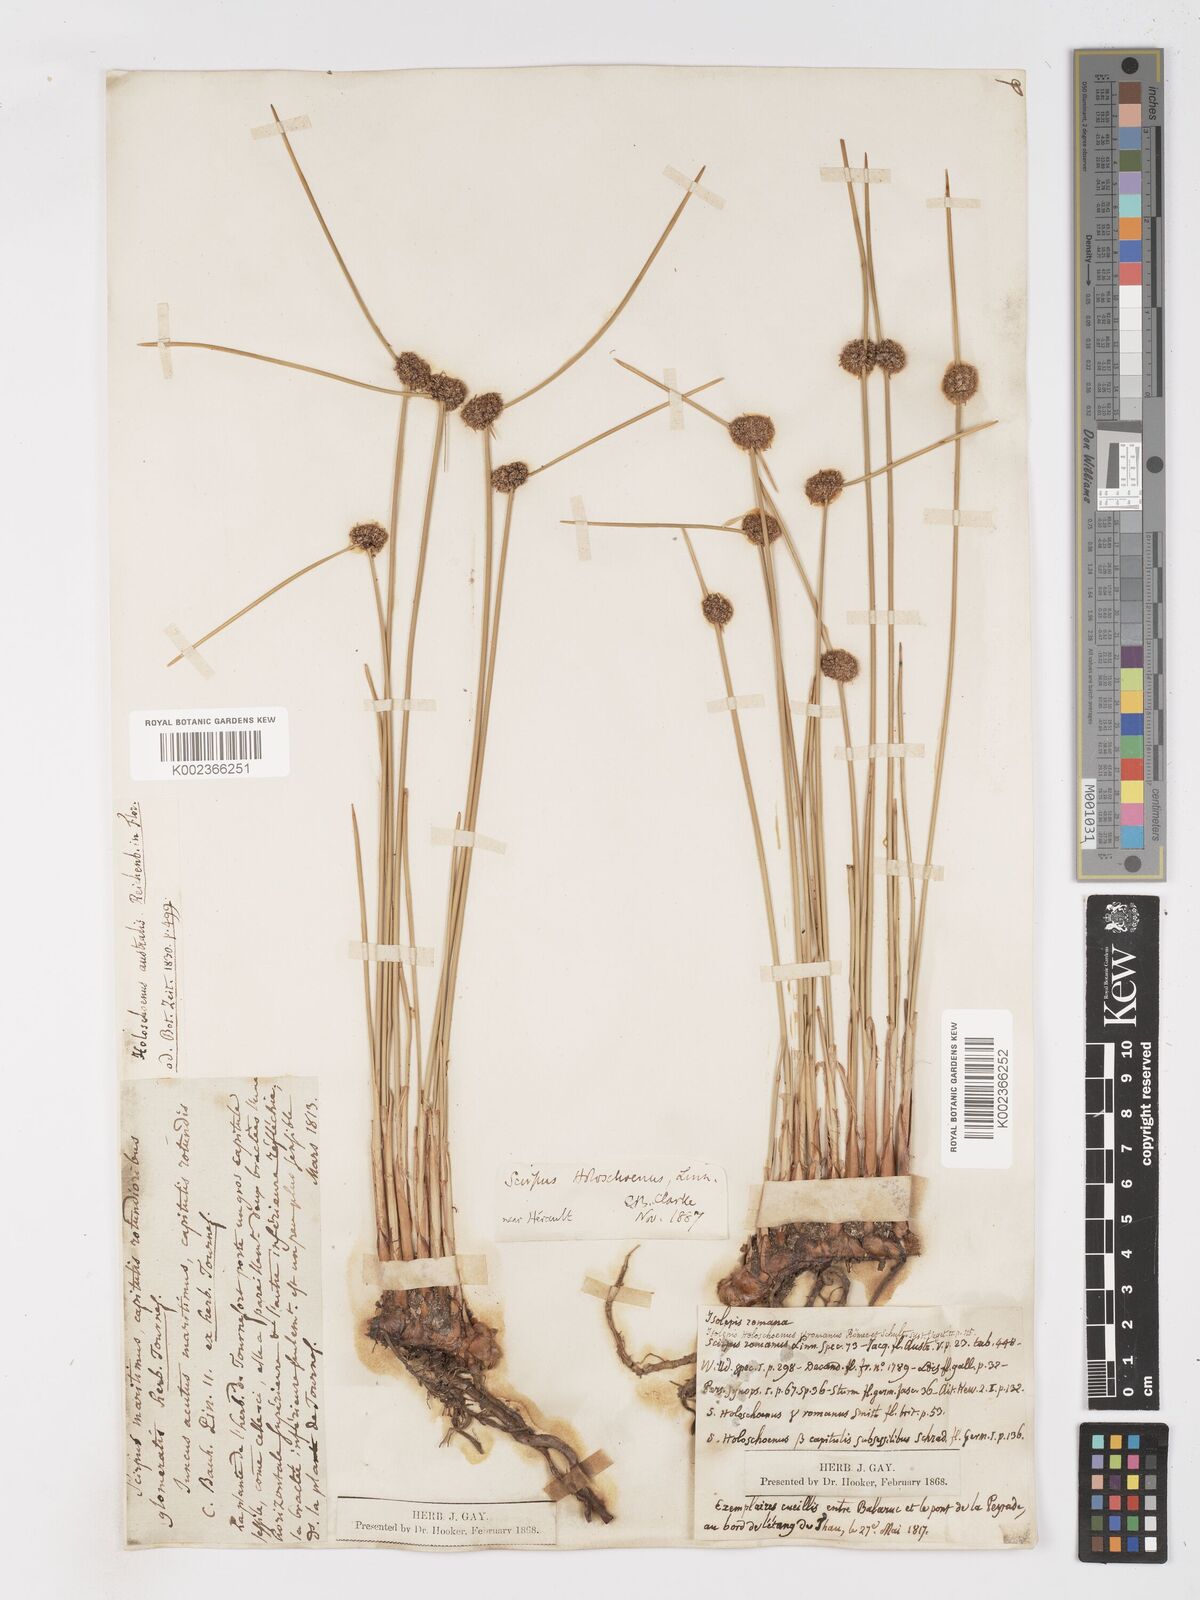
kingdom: Plantae
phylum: Tracheophyta
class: Liliopsida
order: Poales
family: Cyperaceae
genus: Scirpoides
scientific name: Scirpoides holoschoenus
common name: Round-headed club-rush
